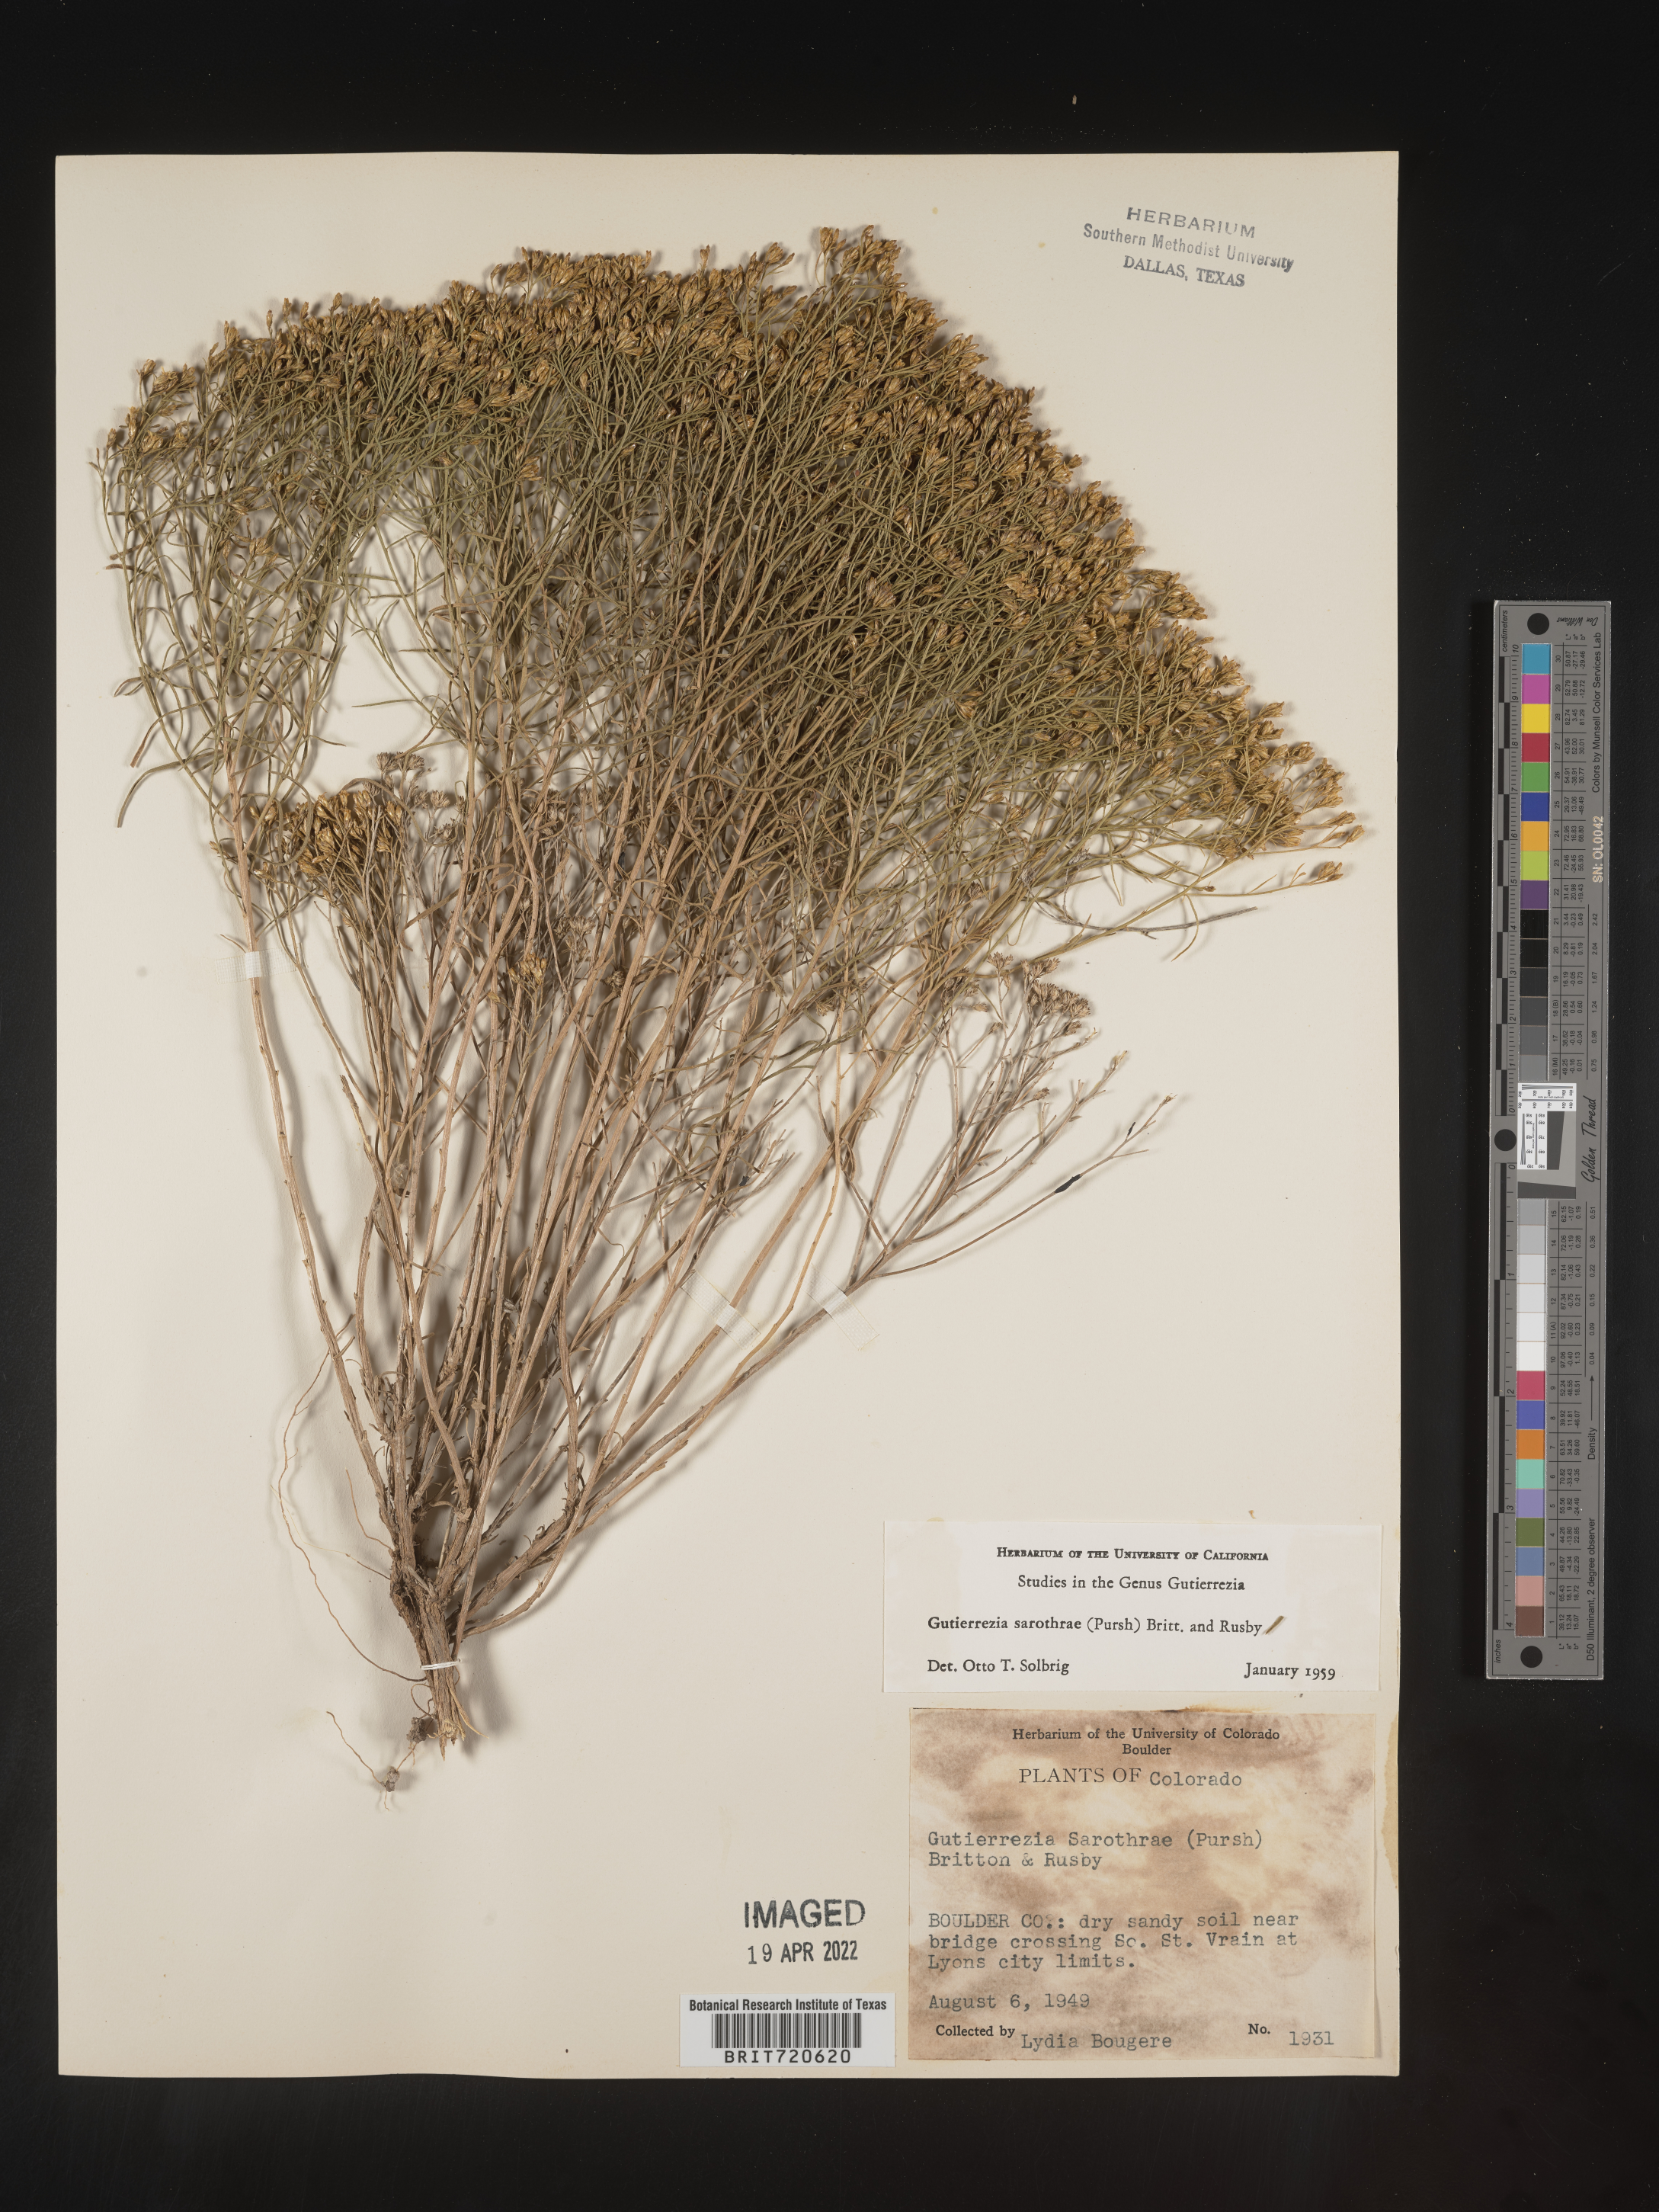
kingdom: Plantae
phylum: Tracheophyta
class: Magnoliopsida
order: Asterales
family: Asteraceae
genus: Gutierrezia
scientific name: Gutierrezia sarothrae
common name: Broom snakeweed
